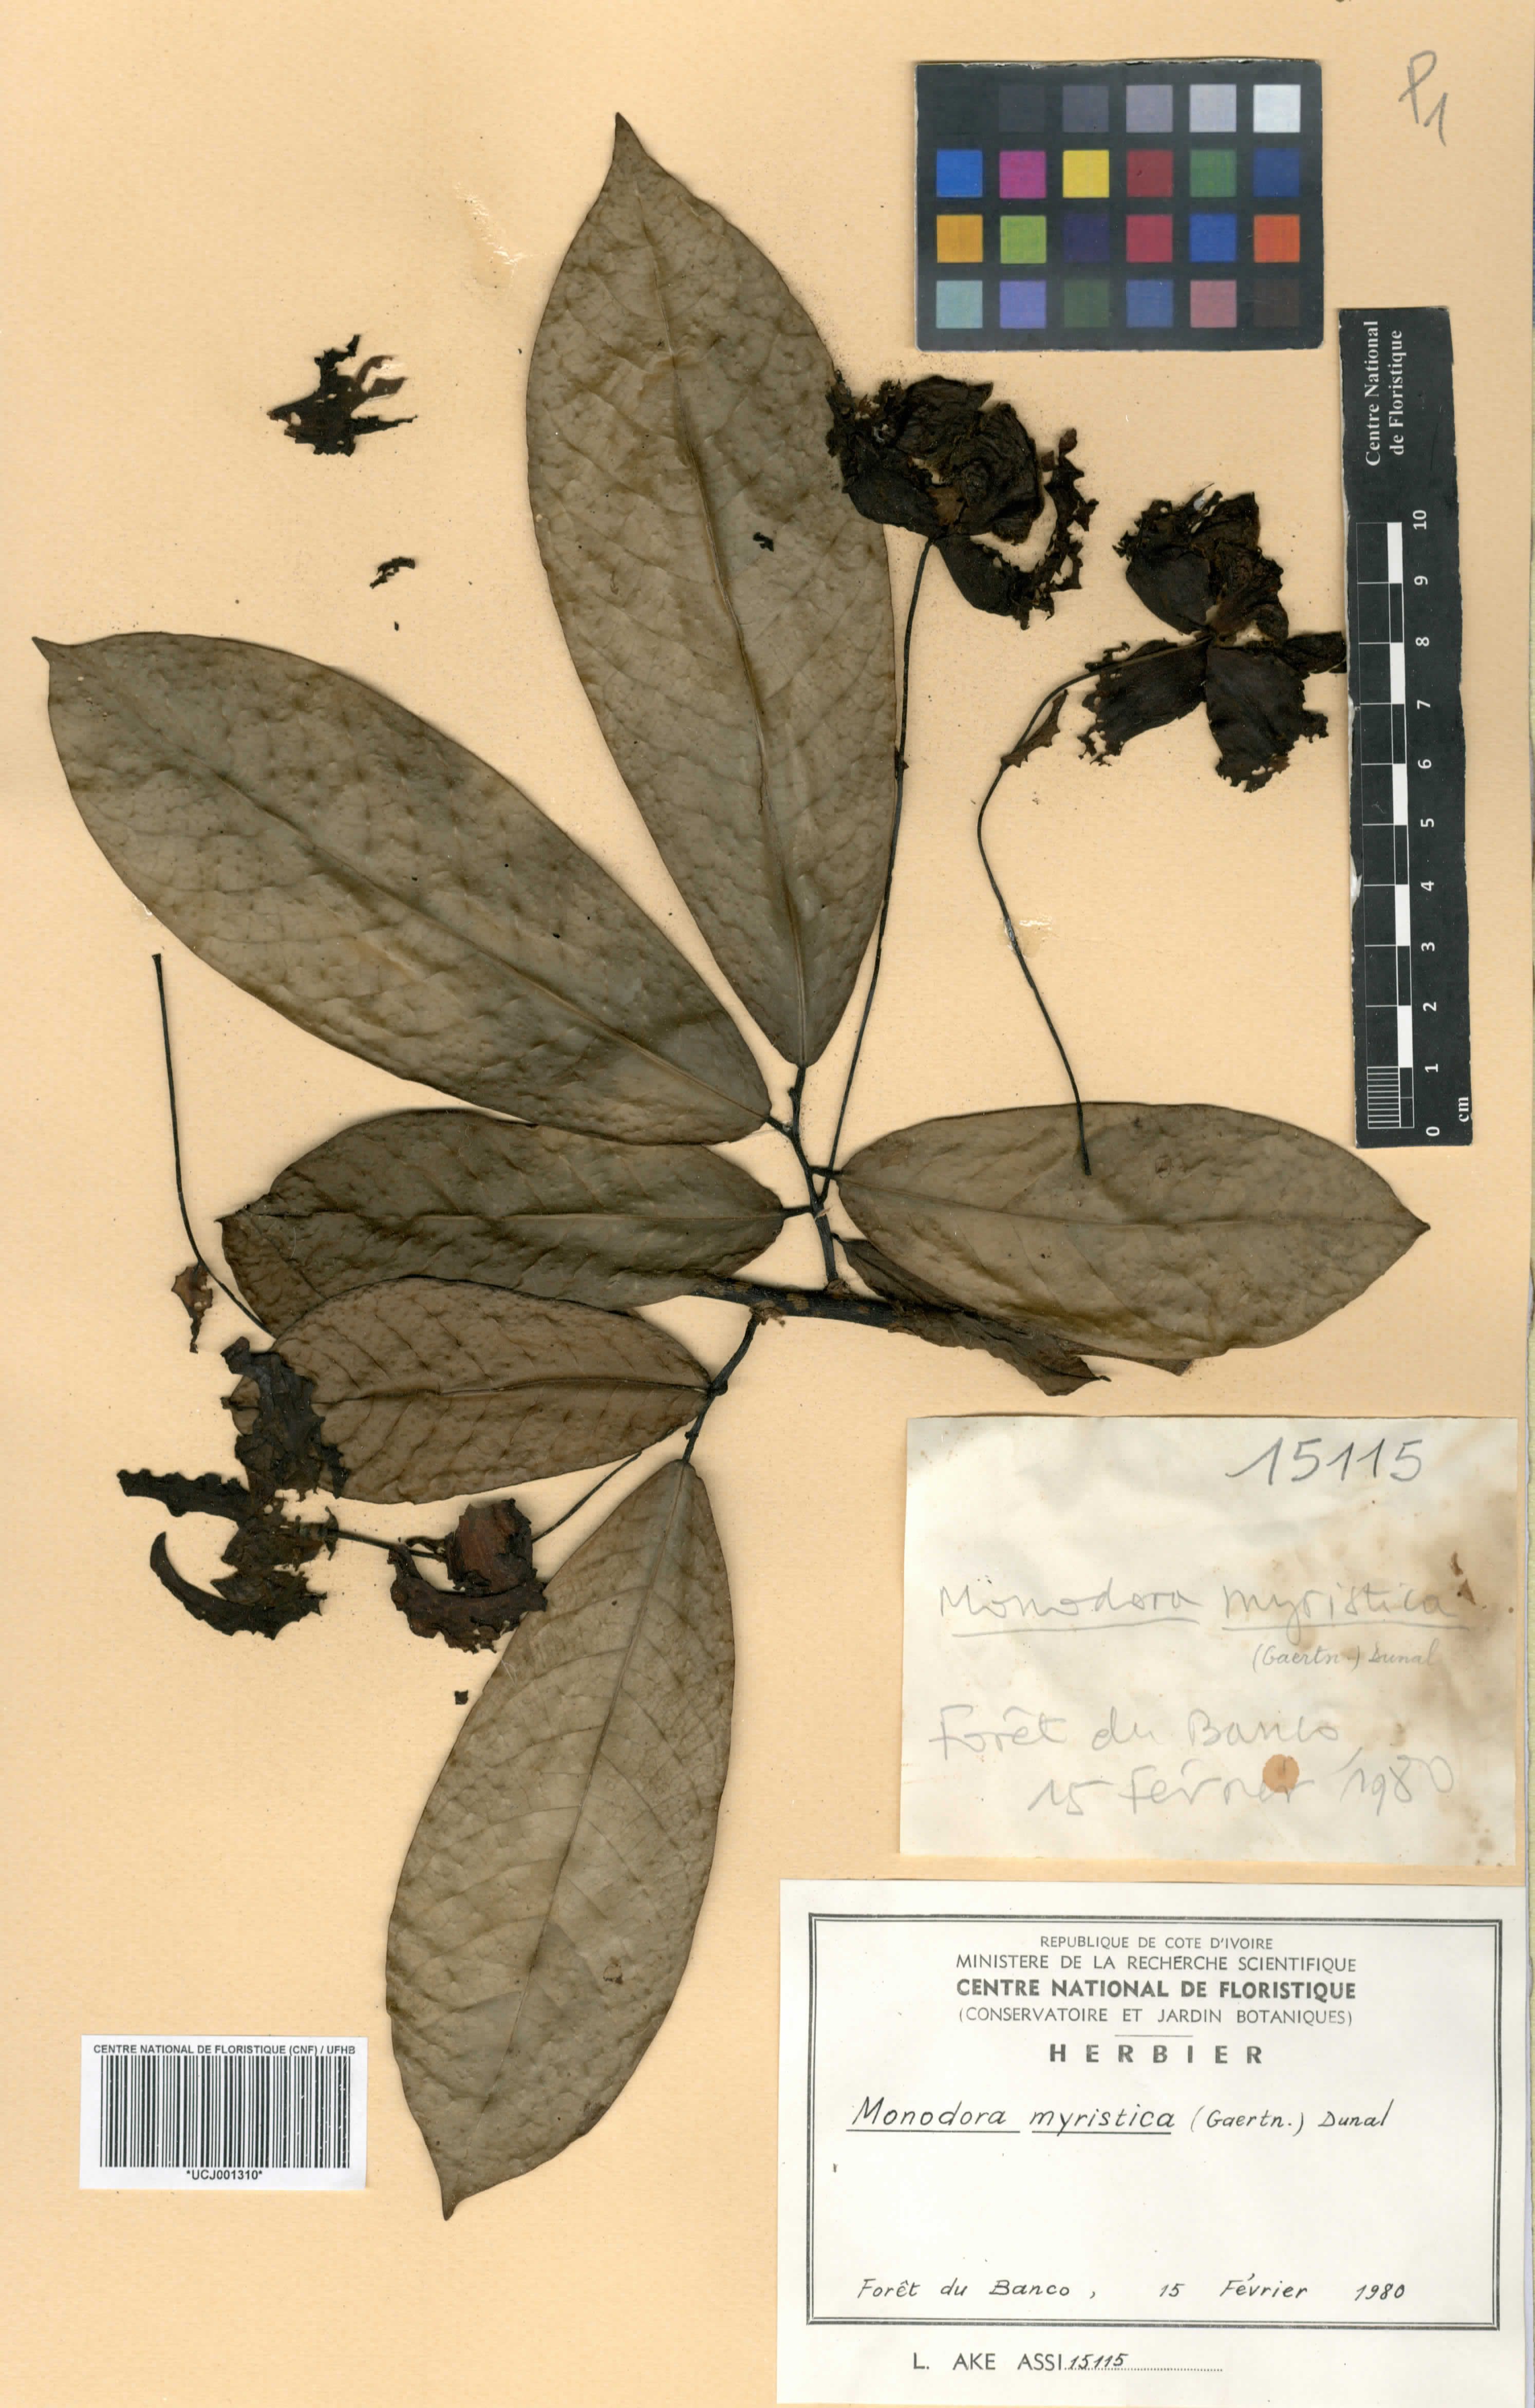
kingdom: Plantae
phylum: Tracheophyta
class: Magnoliopsida
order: Magnoliales
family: Annonaceae
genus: Monodora
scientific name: Monodora myristica
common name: African nutmeg
